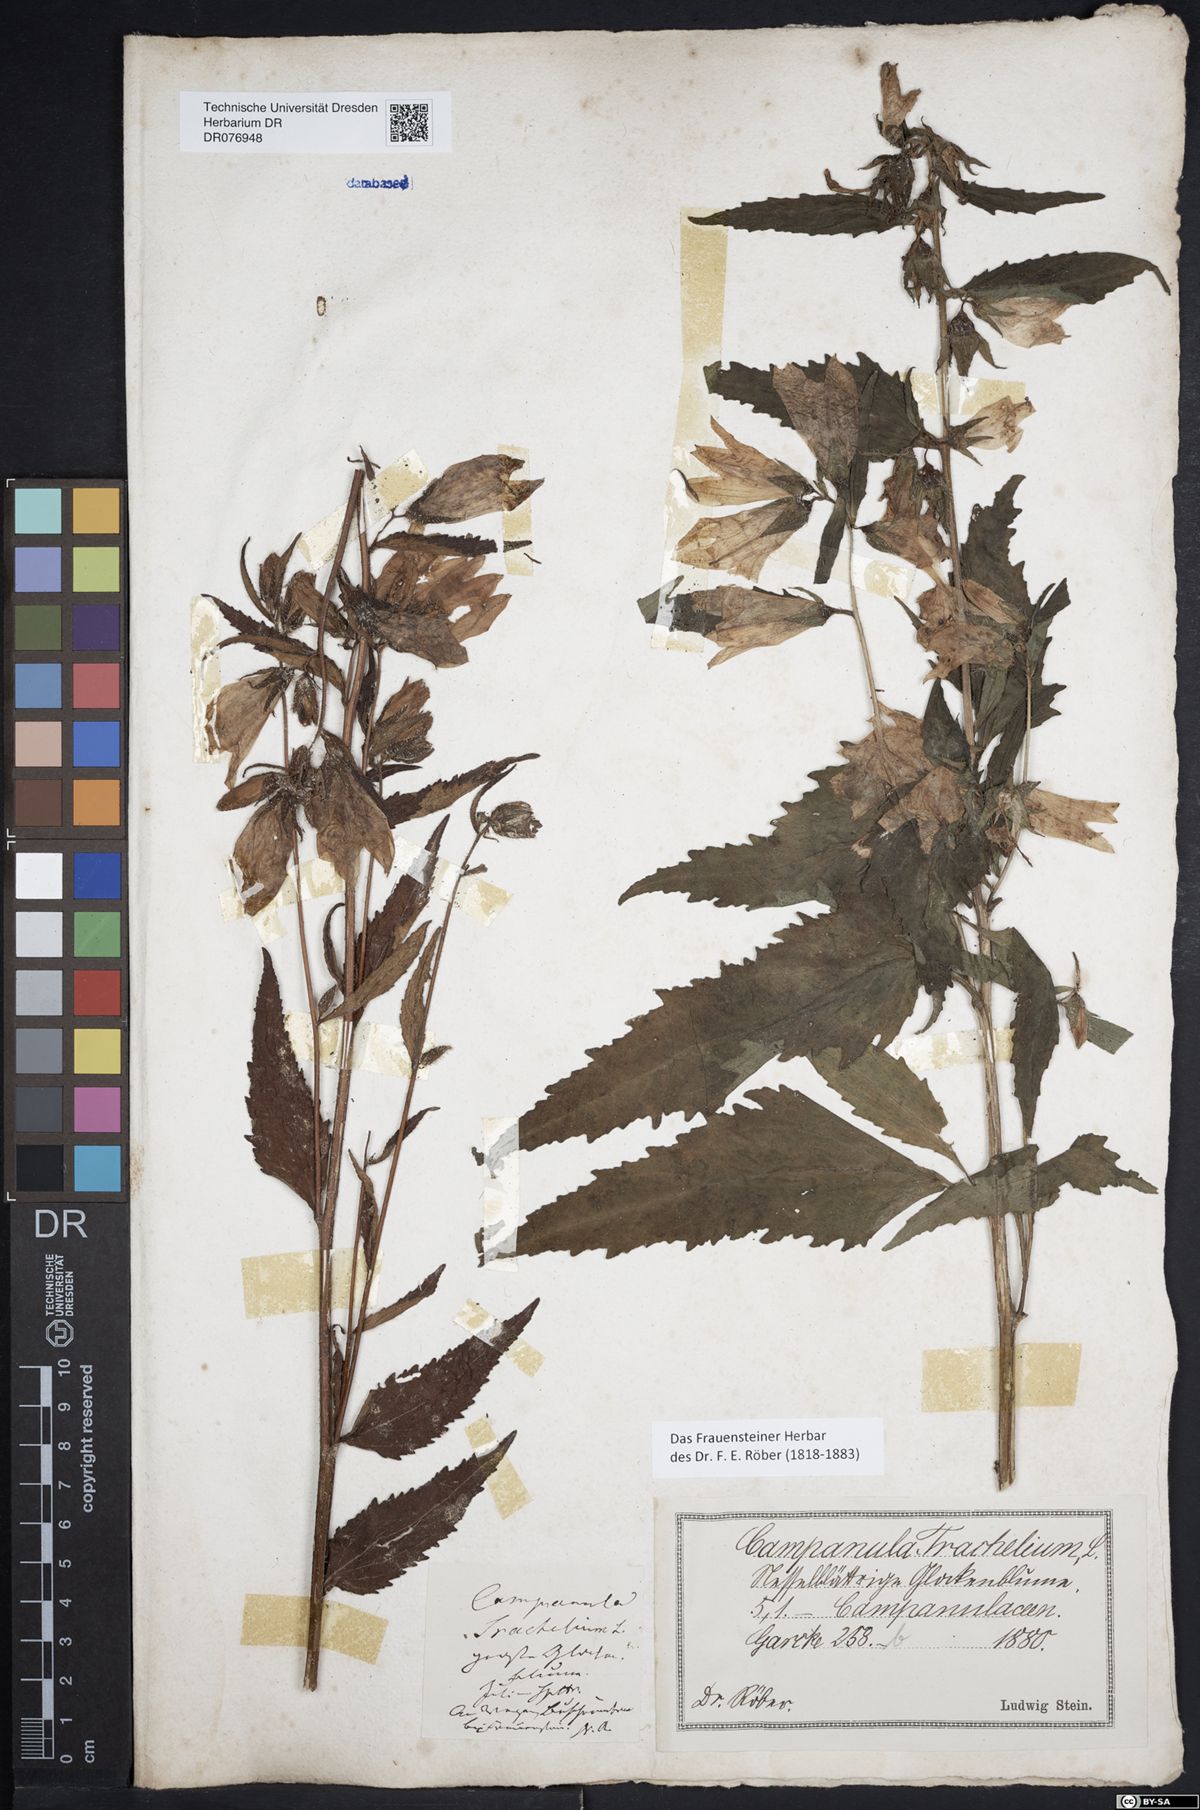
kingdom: Plantae
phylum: Tracheophyta
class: Magnoliopsida
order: Asterales
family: Campanulaceae
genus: Campanula
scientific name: Campanula trachelium
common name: Nettle-leaved bellflower
